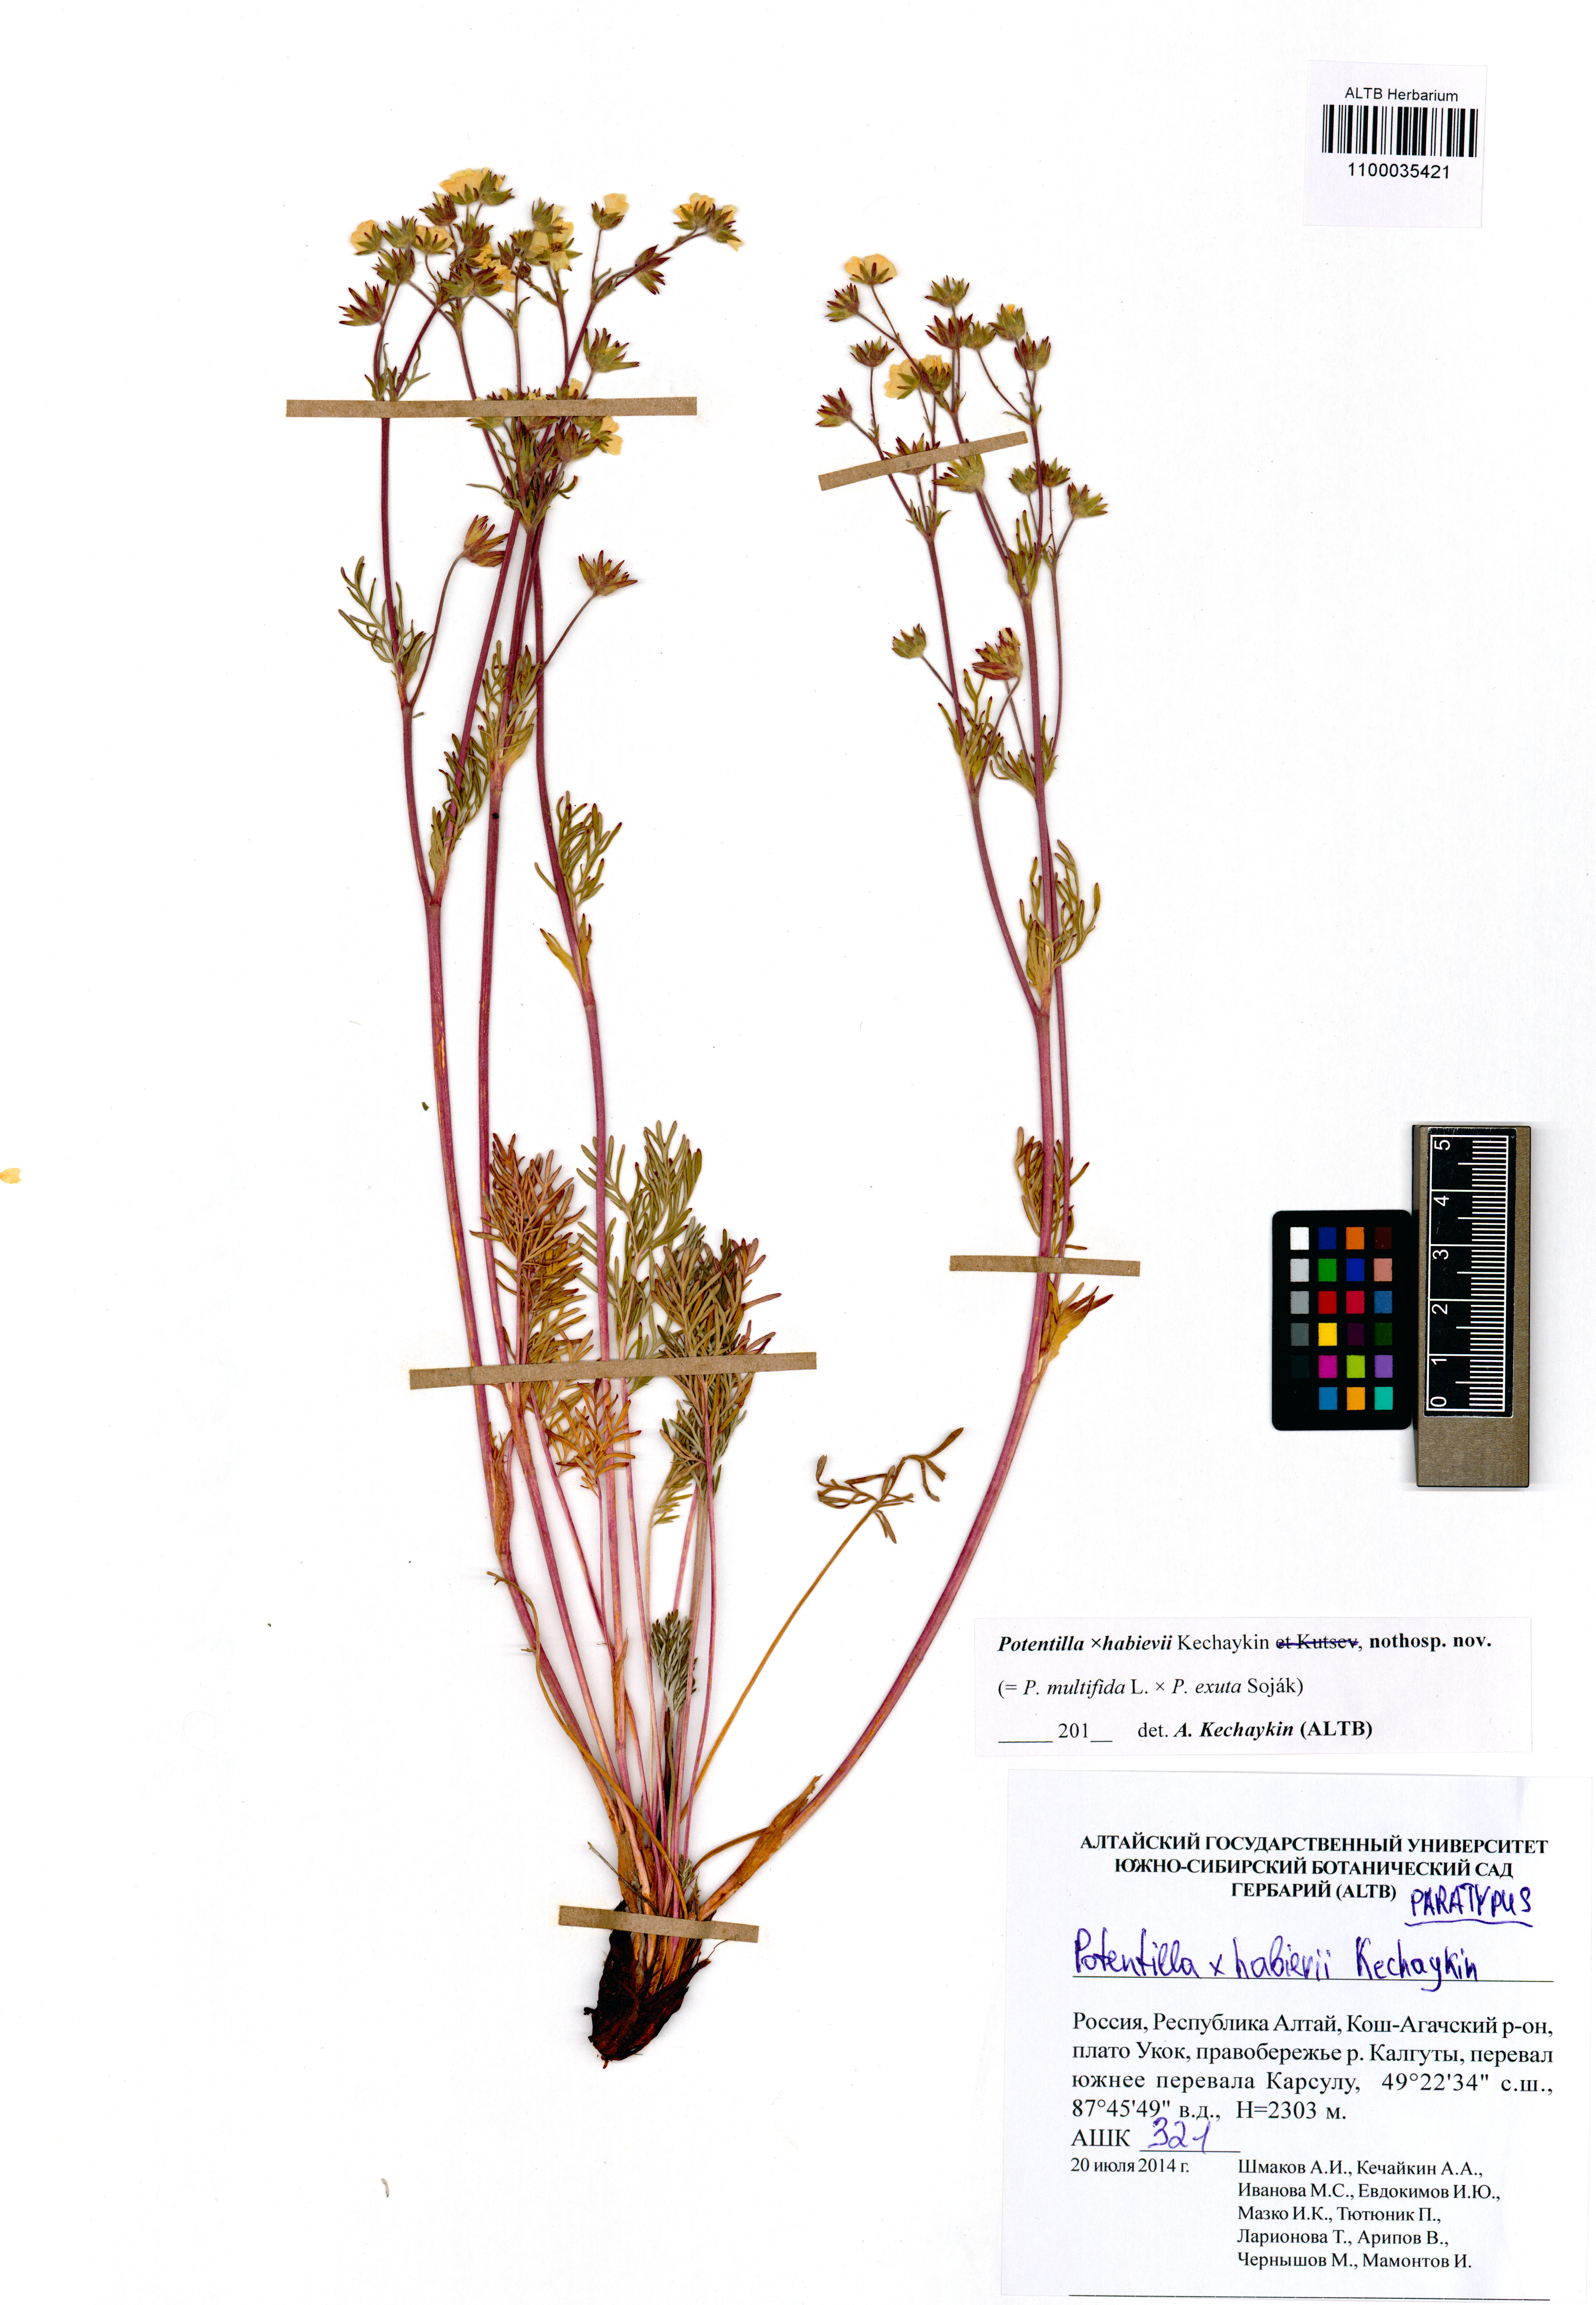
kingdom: Plantae
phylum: Tracheophyta
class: Magnoliopsida
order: Rosales
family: Rosaceae
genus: Potentilla
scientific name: Potentilla habievii
